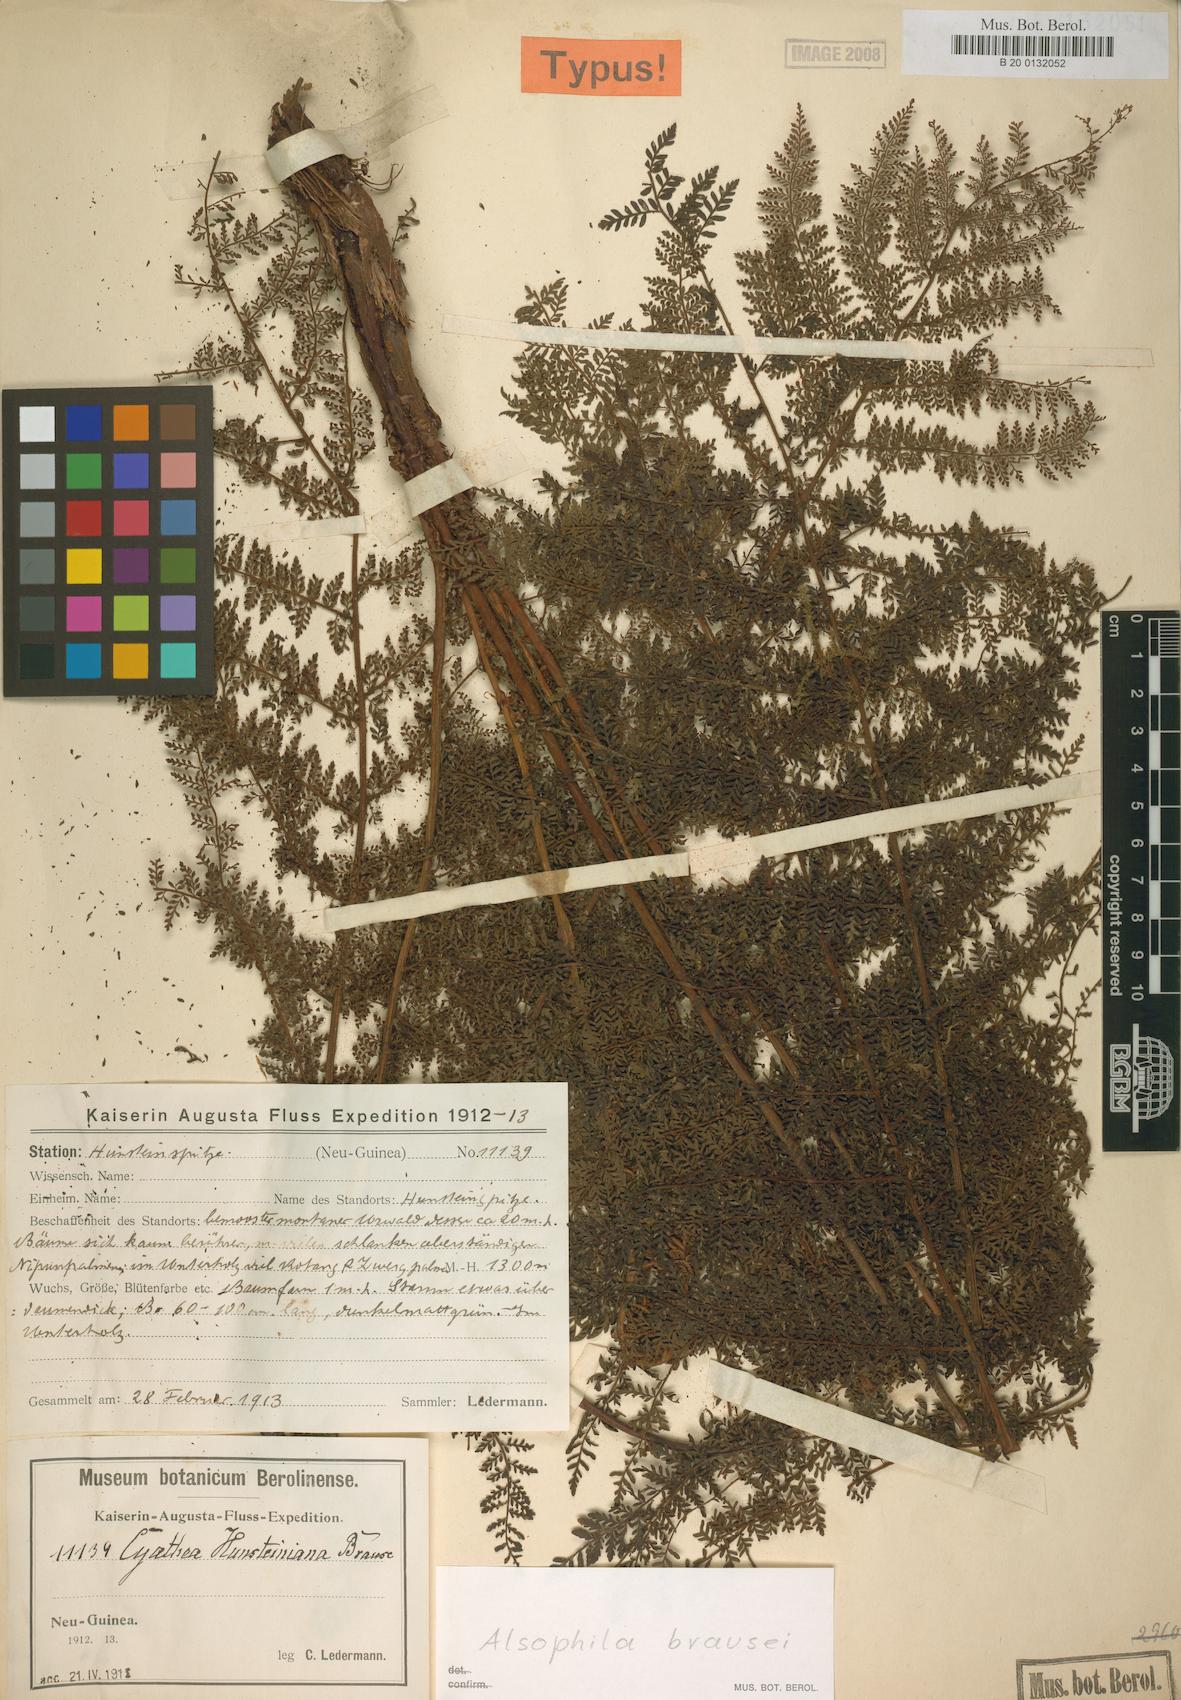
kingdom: Plantae
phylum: Tracheophyta
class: Polypodiopsida
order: Cyatheales
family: Cyatheaceae
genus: Alsophila
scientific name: Alsophila rubiginosa
